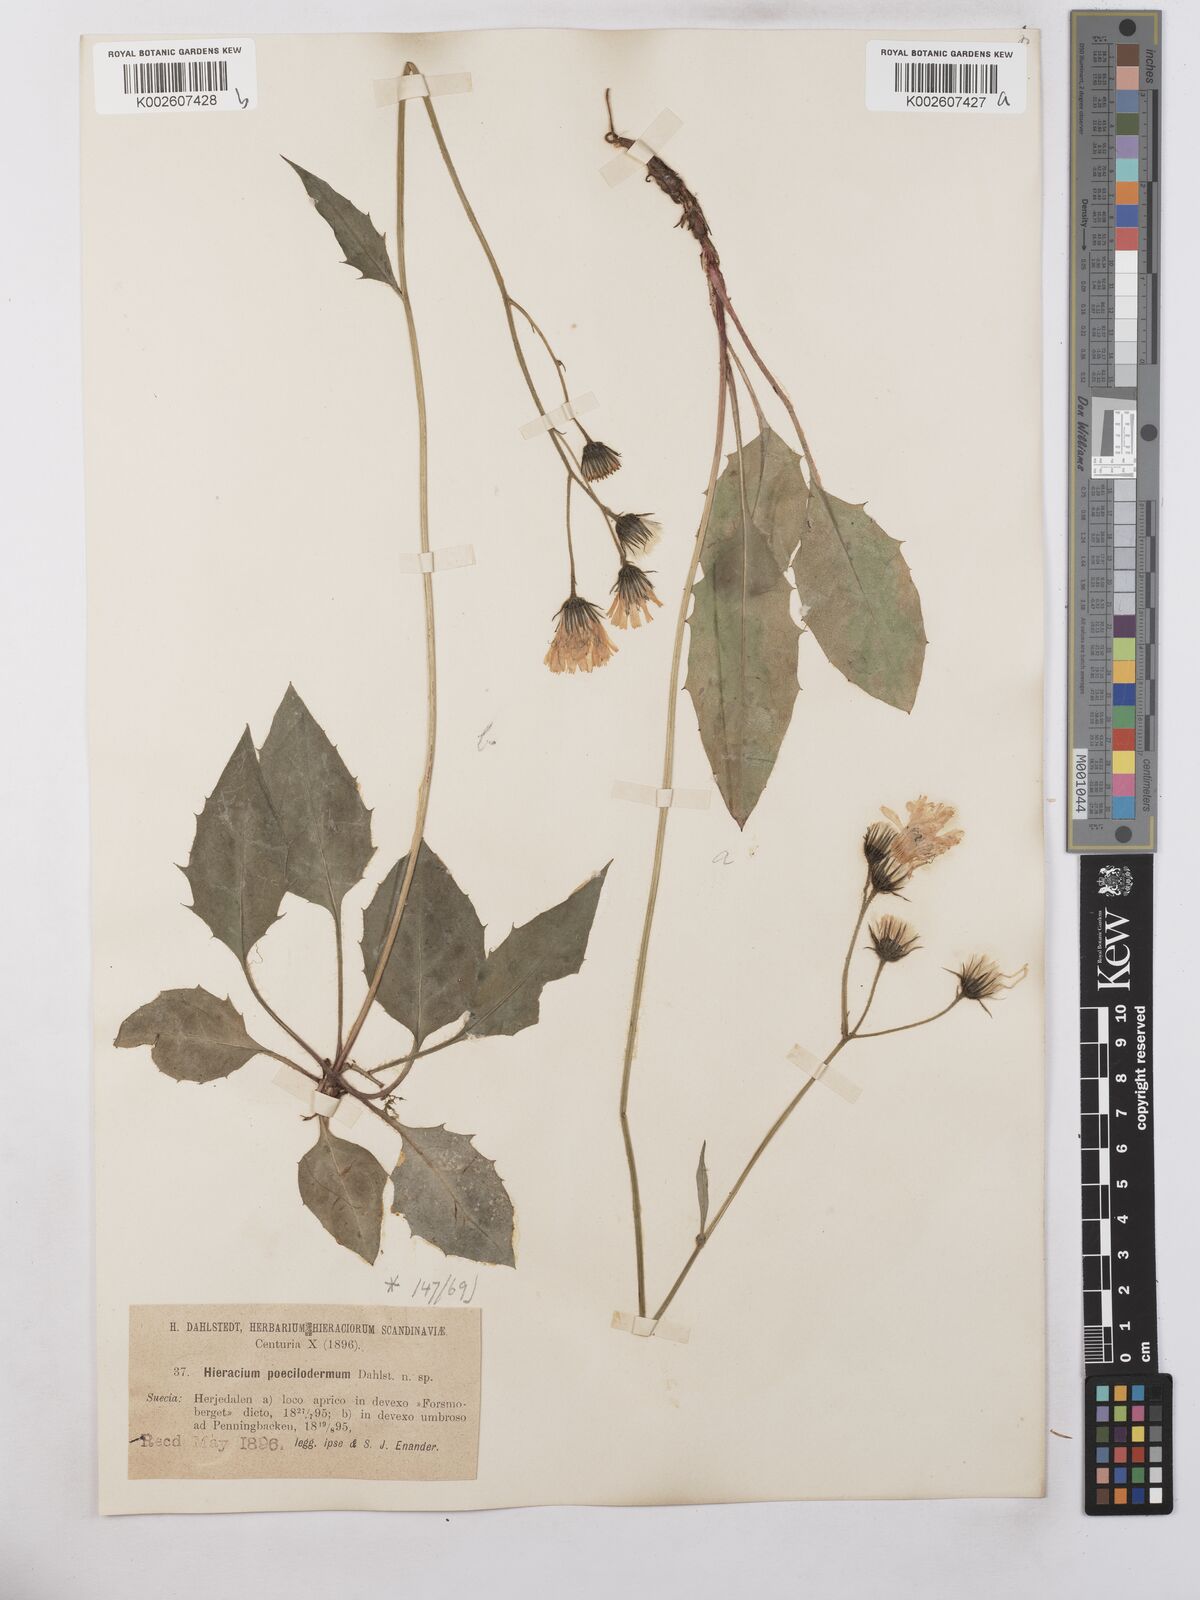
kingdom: Plantae
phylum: Tracheophyta
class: Magnoliopsida
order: Asterales
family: Asteraceae
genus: Hieracium
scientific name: Hieracium poecilodermum
